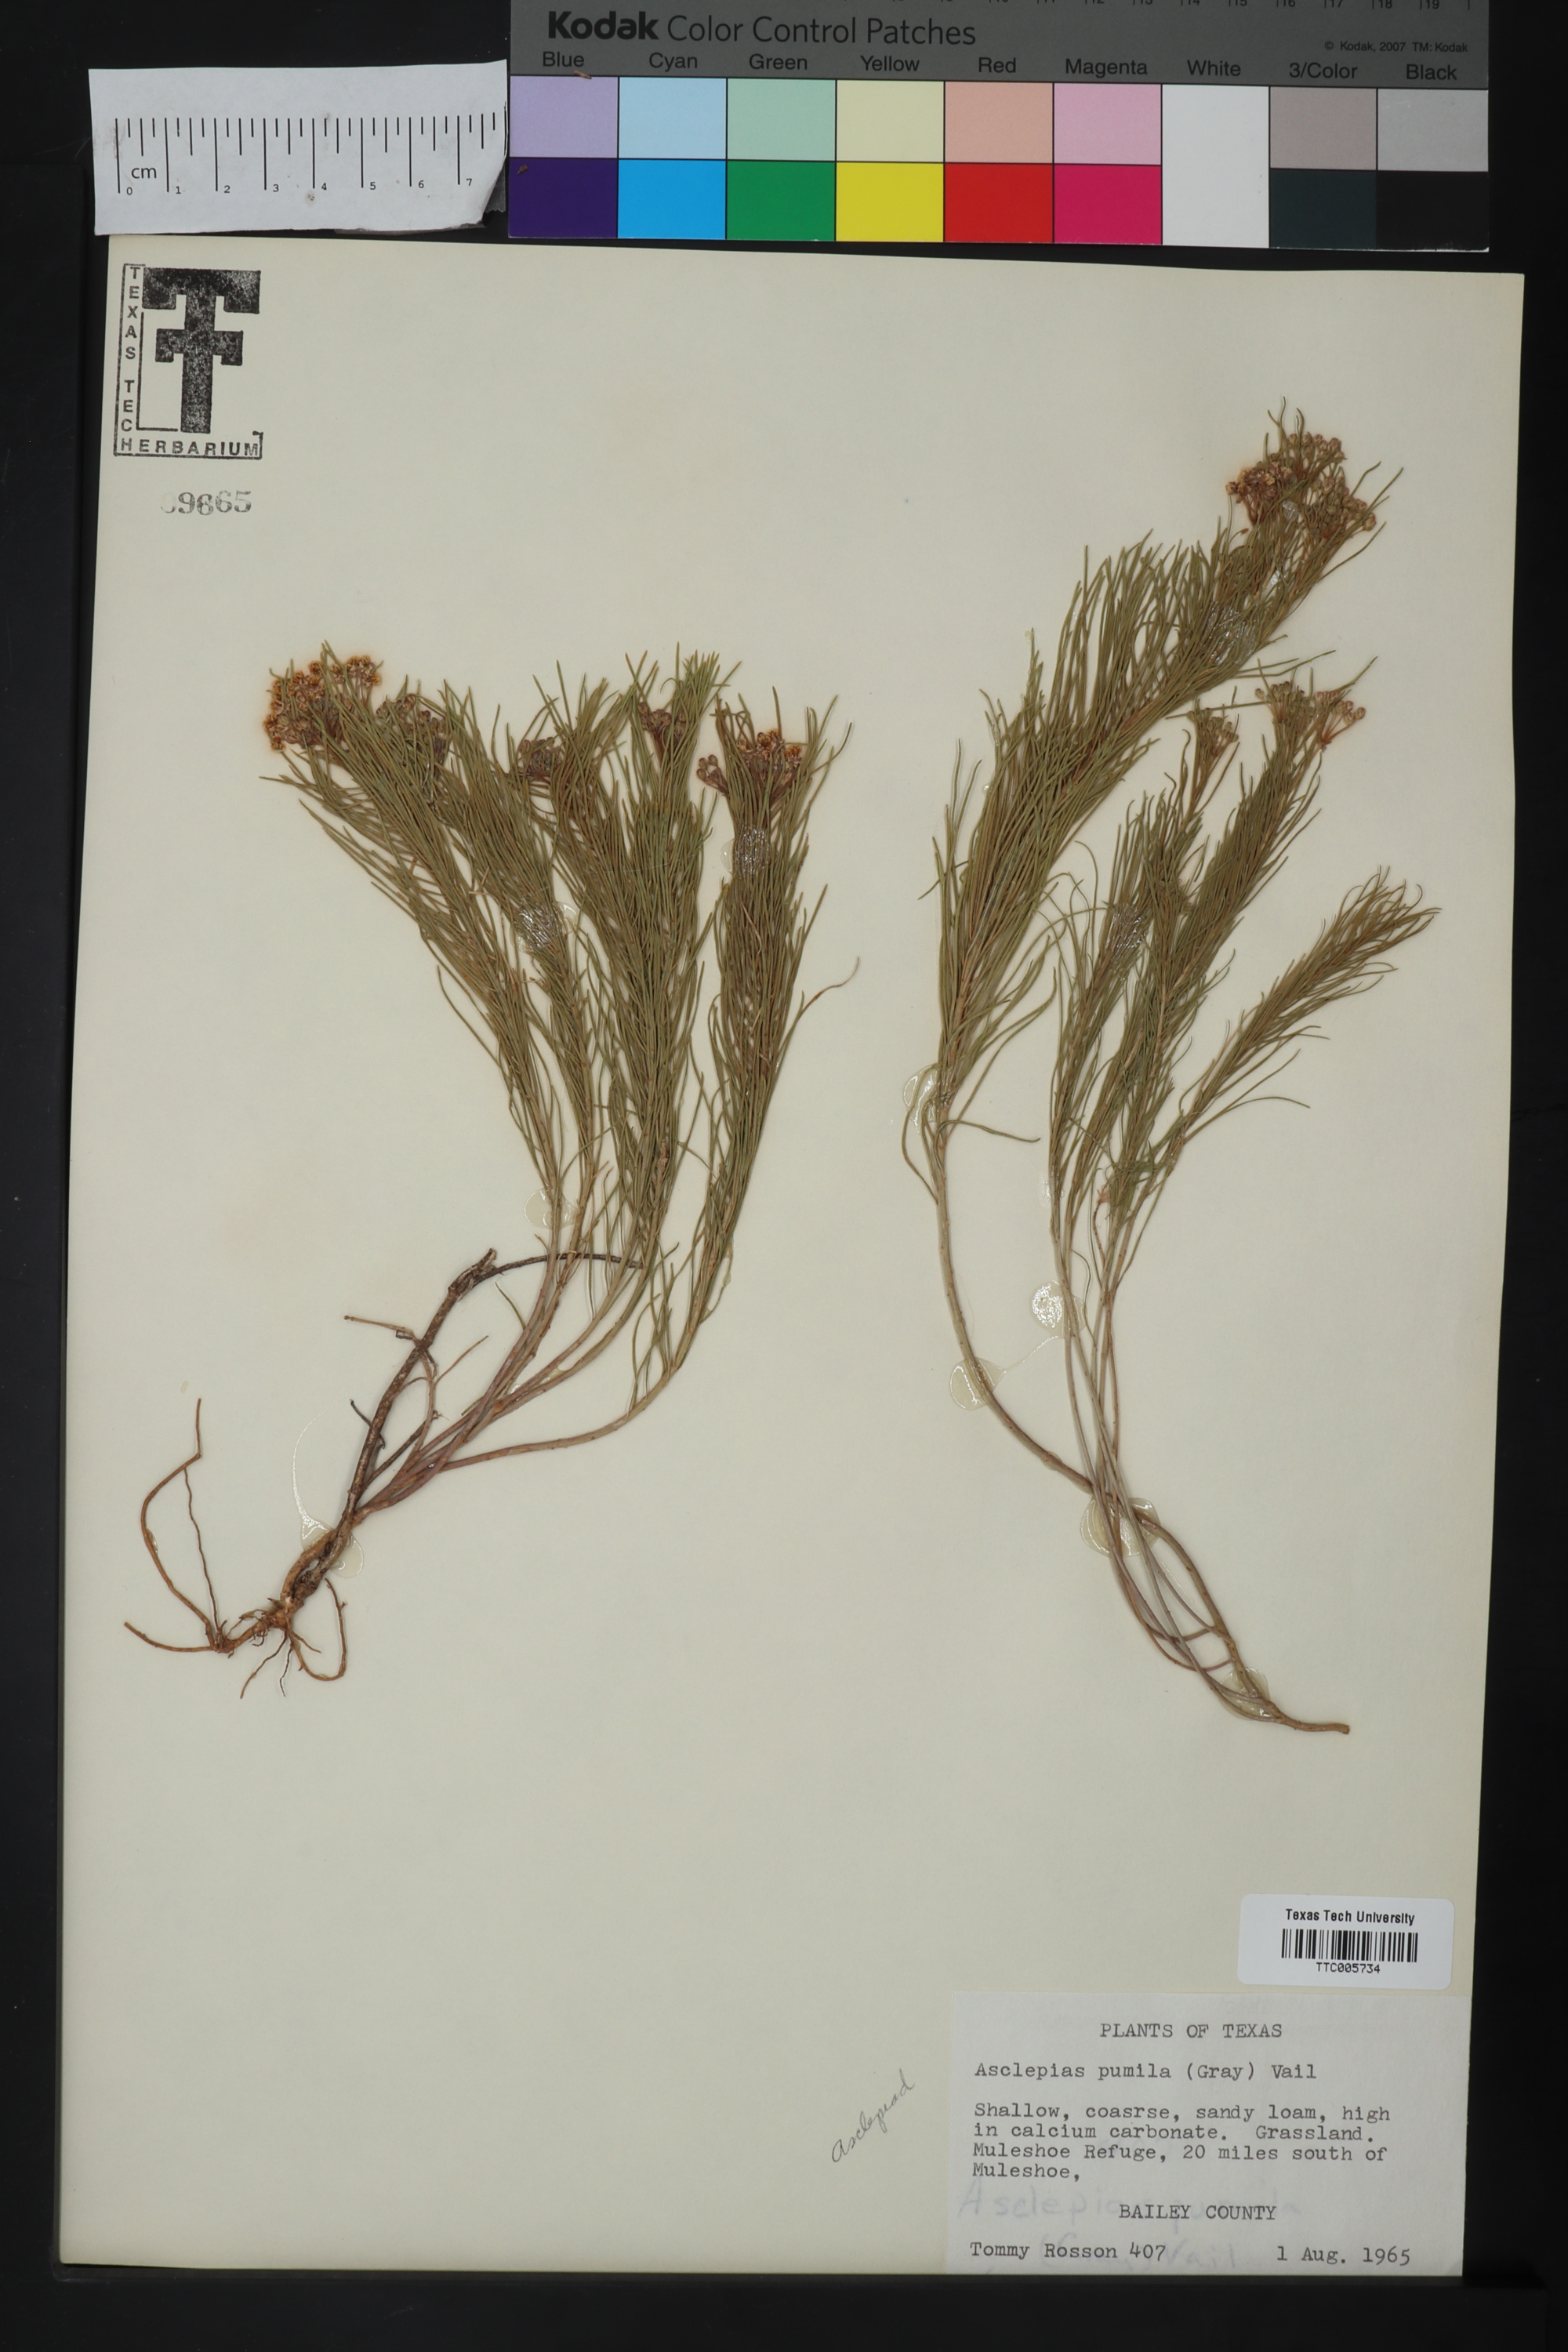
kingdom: Plantae
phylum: Tracheophyta
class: Magnoliopsida
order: Gentianales
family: Apocynaceae
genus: Asclepias
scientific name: Asclepias pumila
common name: Dwarf milkweed
